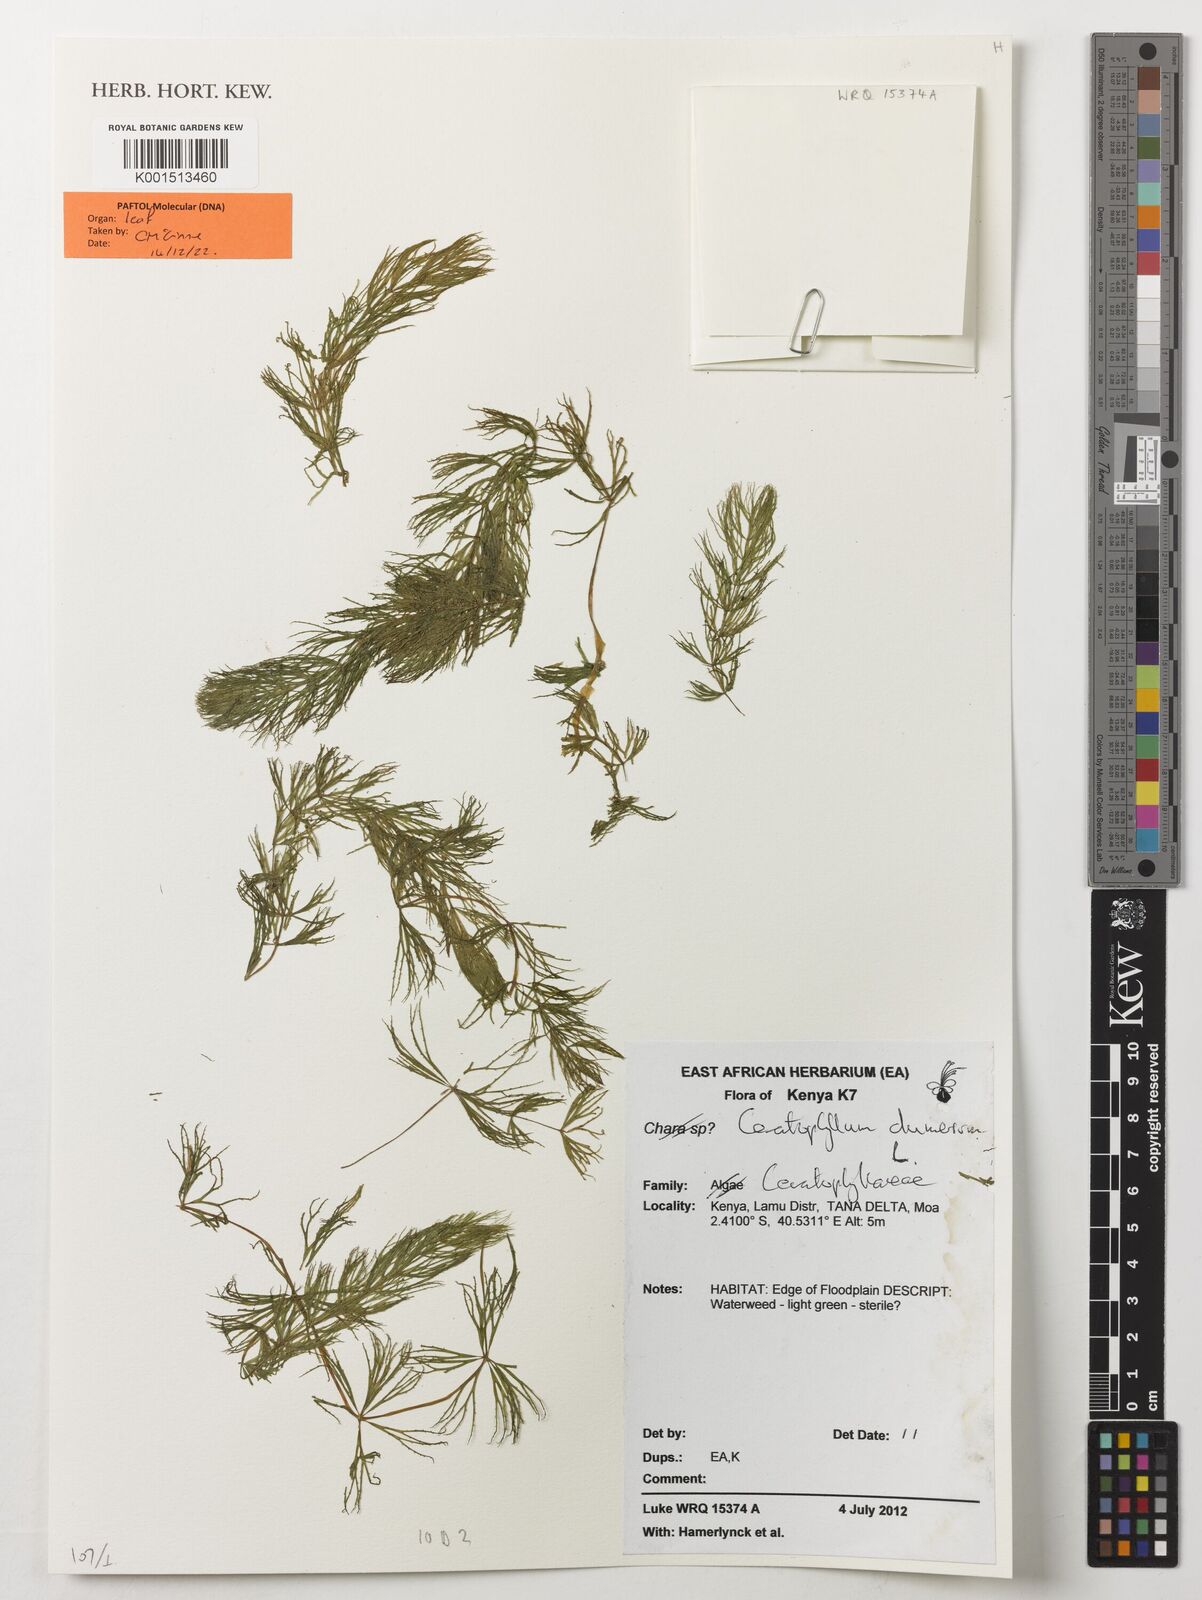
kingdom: Plantae
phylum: Tracheophyta
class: Magnoliopsida
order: Ceratophyllales
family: Ceratophyllaceae
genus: Ceratophyllum
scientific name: Ceratophyllum demersum
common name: Rigid hornwort
